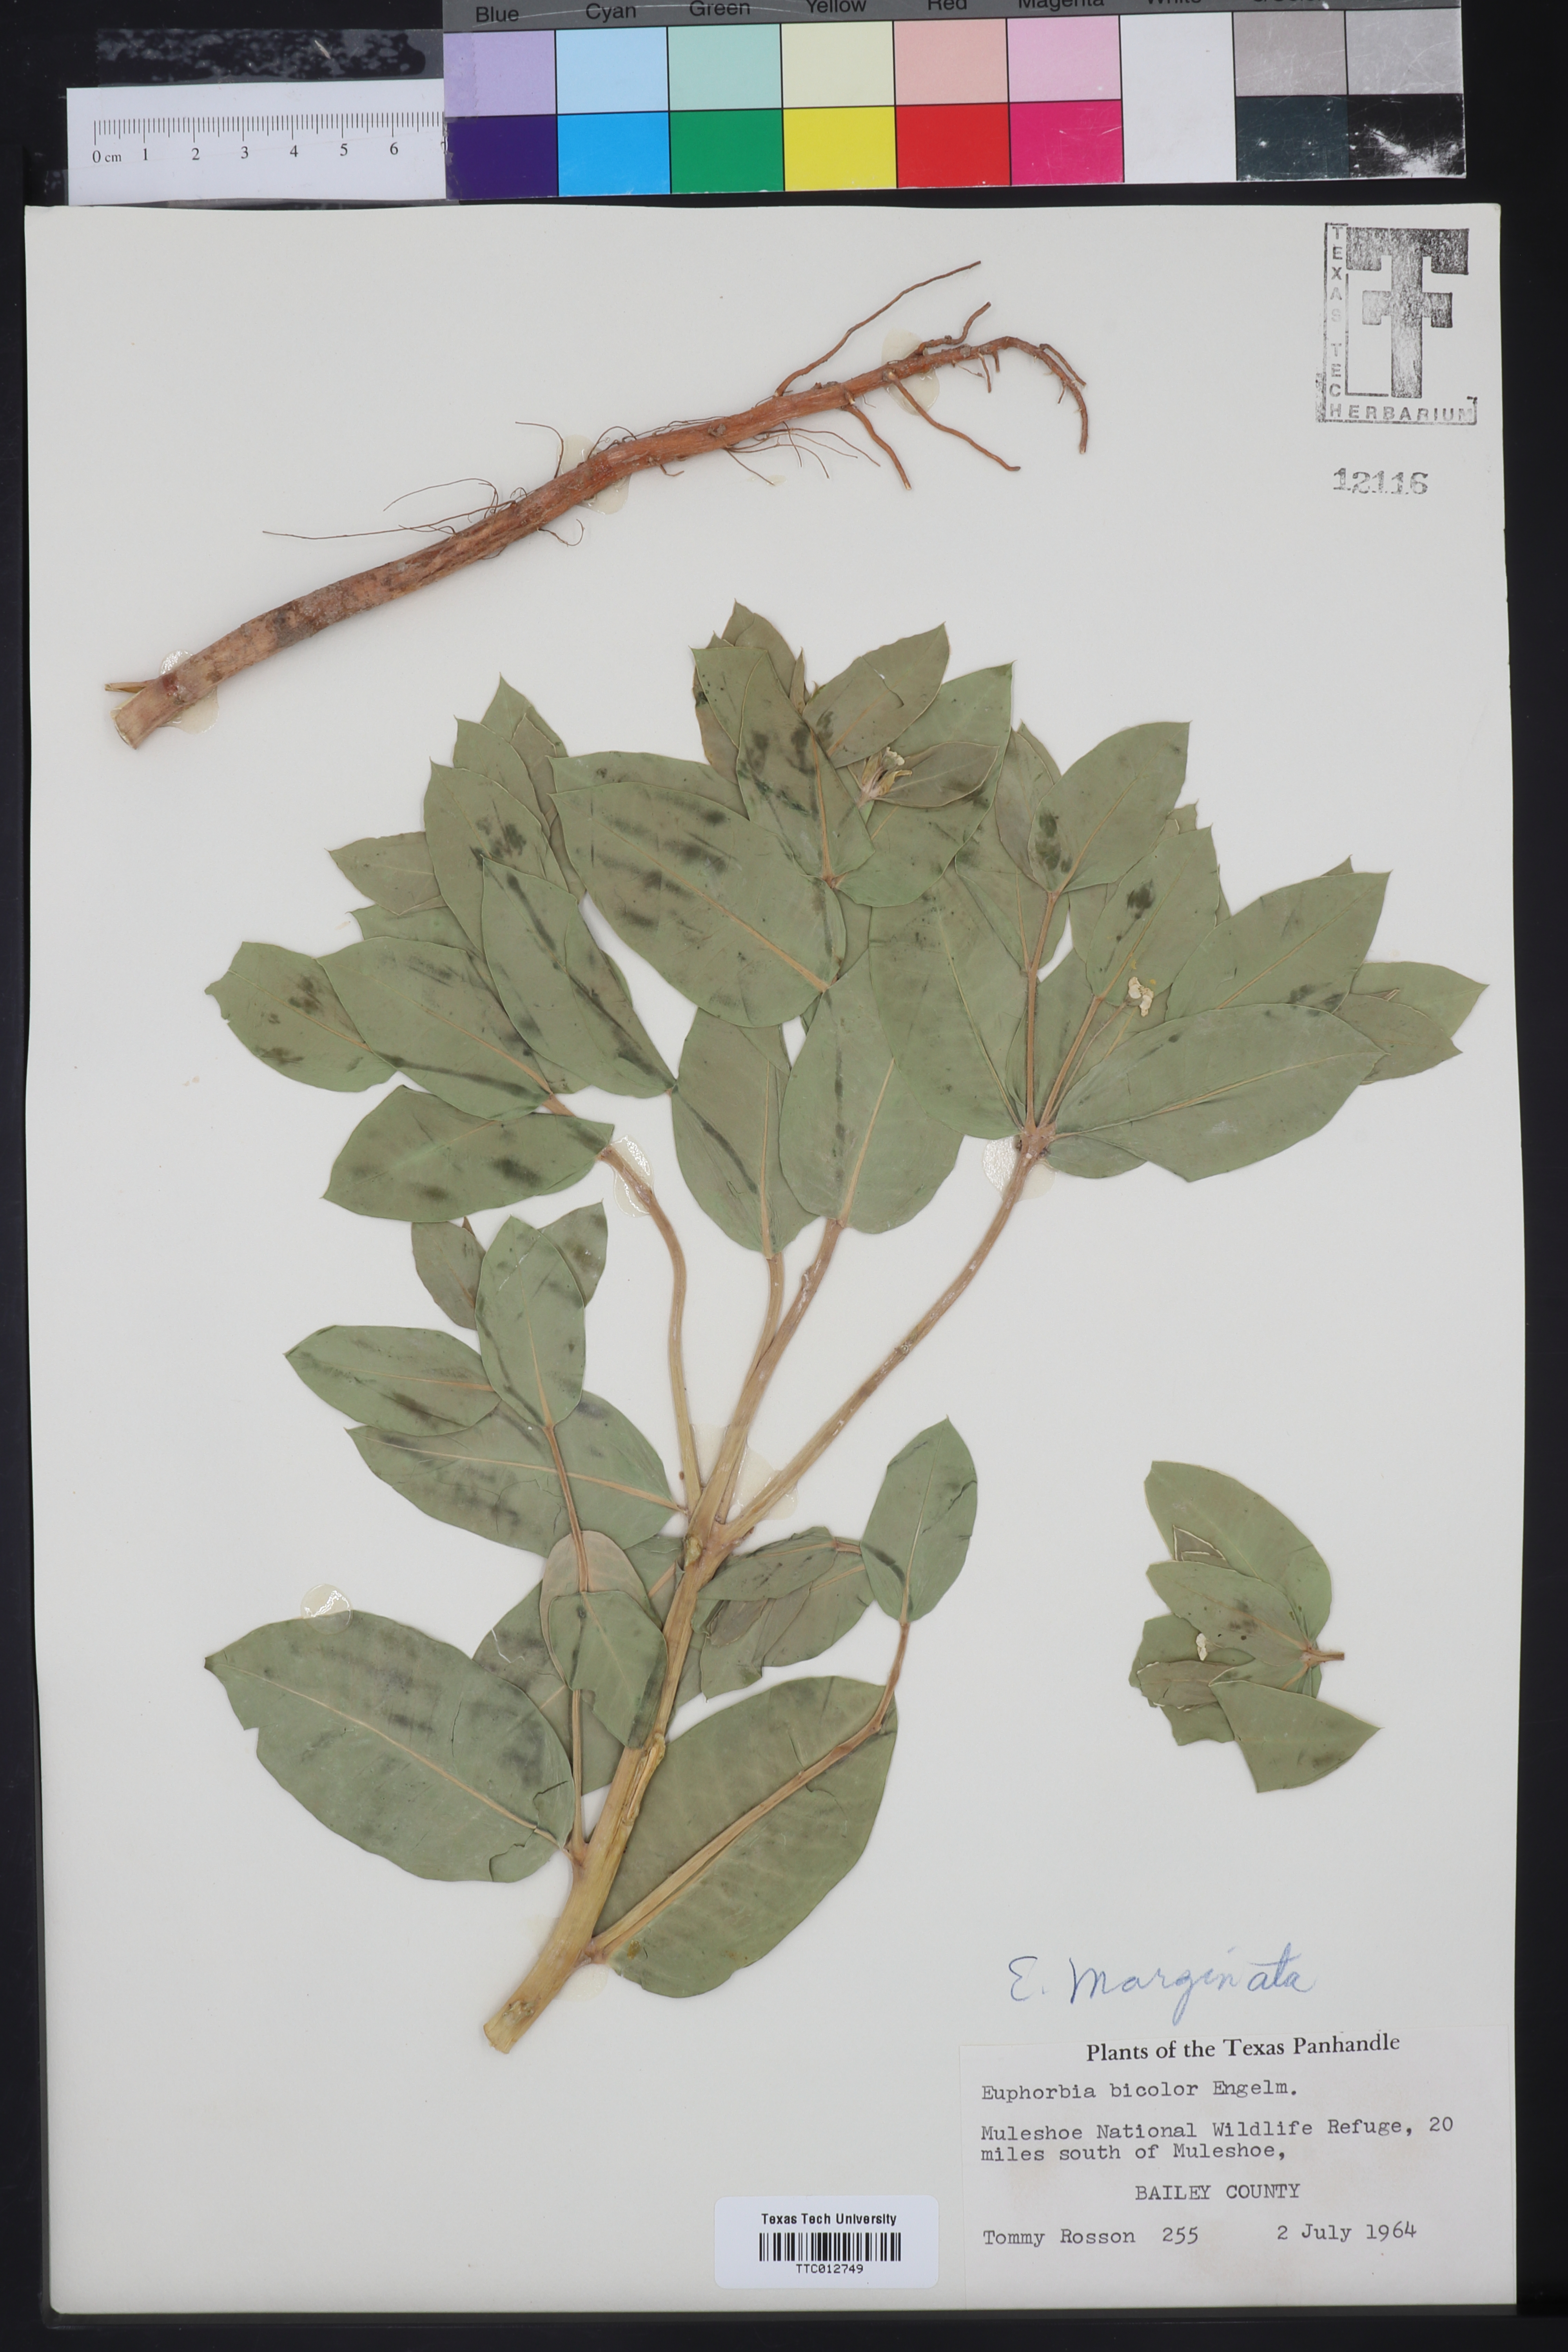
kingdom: Plantae
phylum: Tracheophyta
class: Magnoliopsida
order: Malpighiales
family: Euphorbiaceae
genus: Euphorbia
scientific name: Euphorbia marginata
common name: Ghostweed
